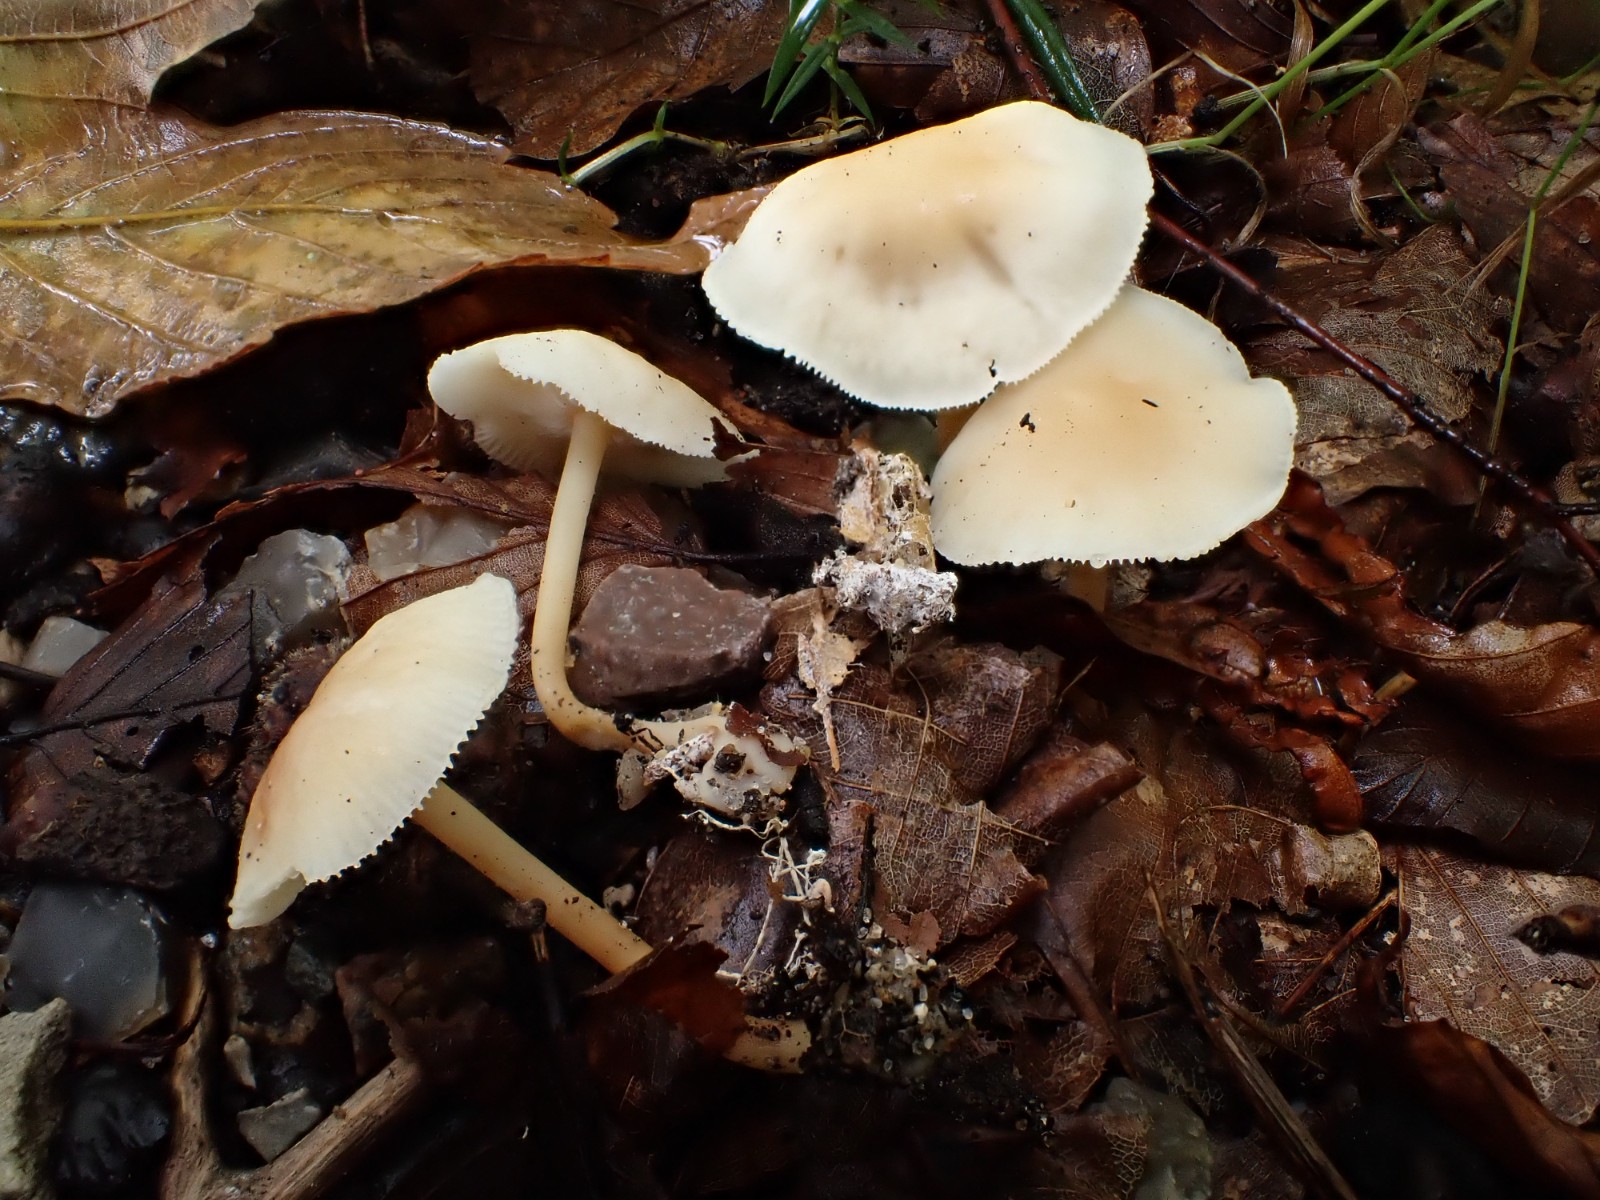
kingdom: Fungi
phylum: Basidiomycota
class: Agaricomycetes
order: Agaricales
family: Omphalotaceae
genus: Gymnopus
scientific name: Gymnopus dryophilus
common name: løv-fladhat
